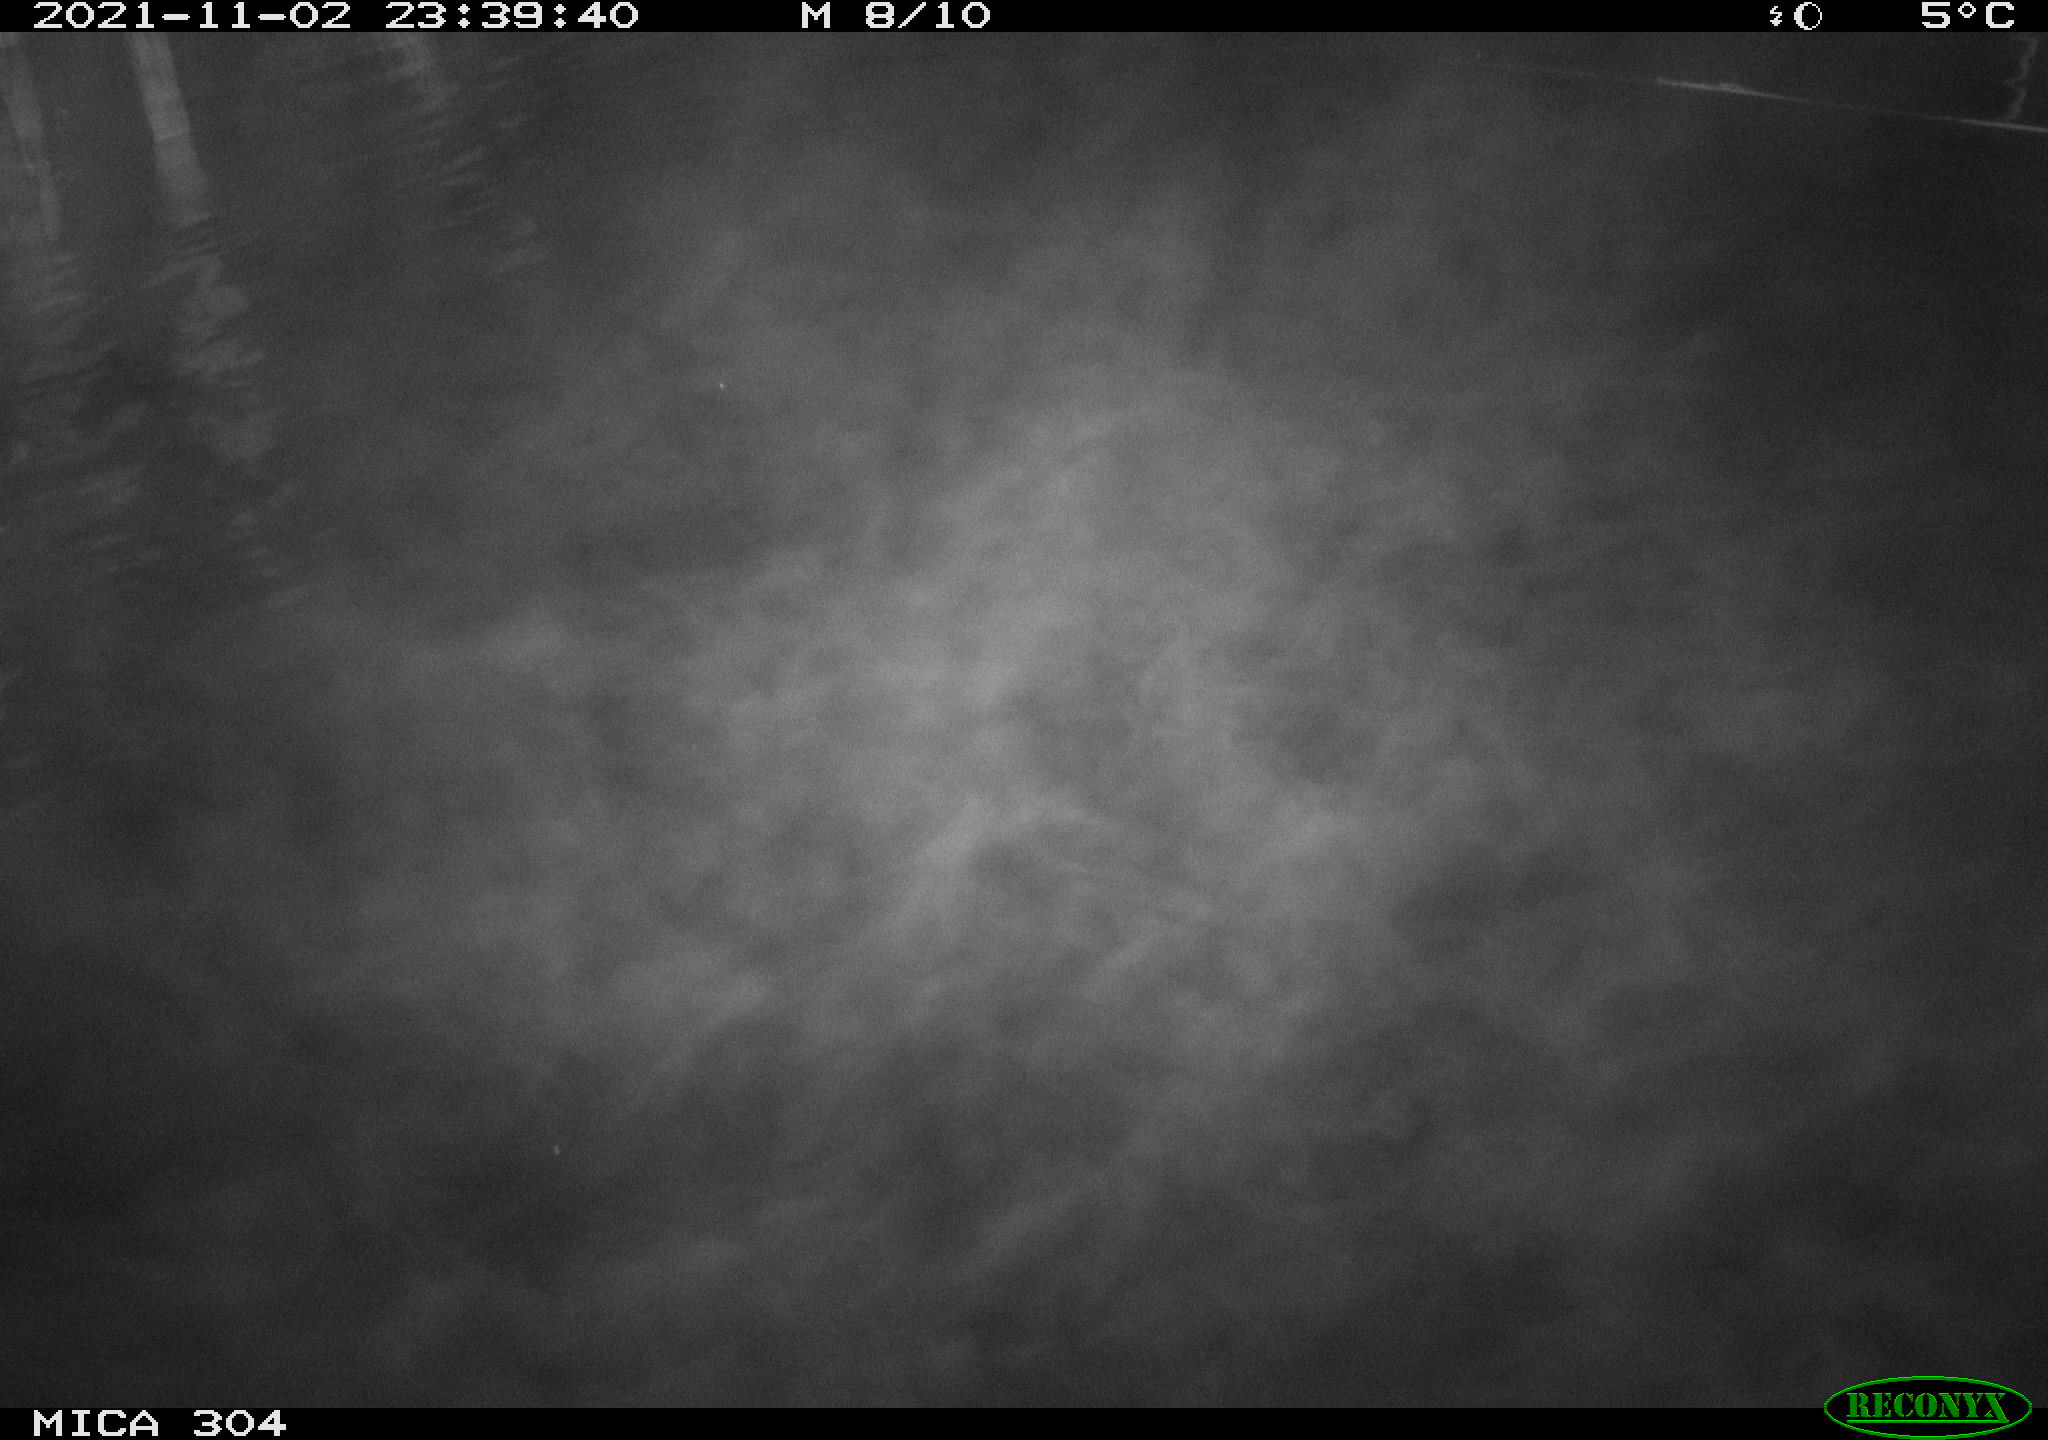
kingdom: Animalia
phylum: Chordata
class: Mammalia
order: Rodentia
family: Cricetidae
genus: Ondatra
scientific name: Ondatra zibethicus
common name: Muskrat
